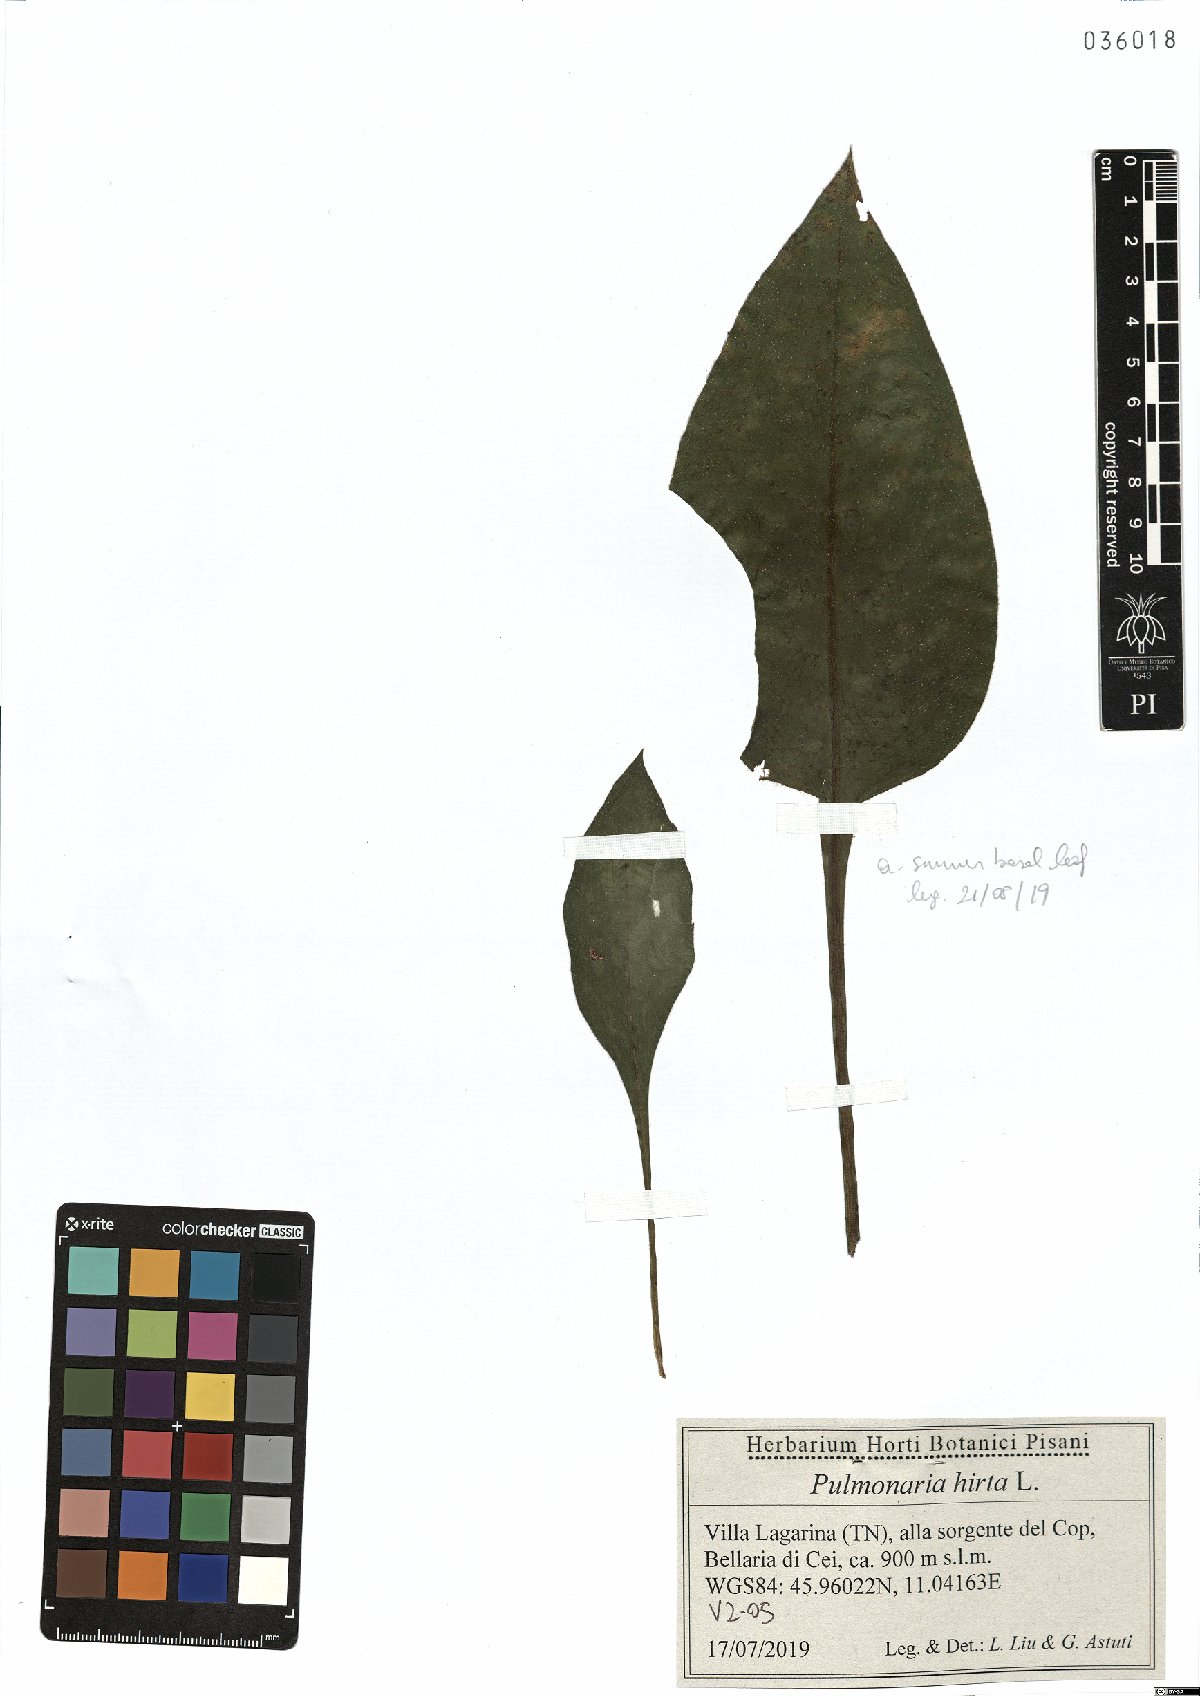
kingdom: Plantae
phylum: Tracheophyta
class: Magnoliopsida
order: Boraginales
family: Boraginaceae
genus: Pulmonaria
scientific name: Pulmonaria hirta
